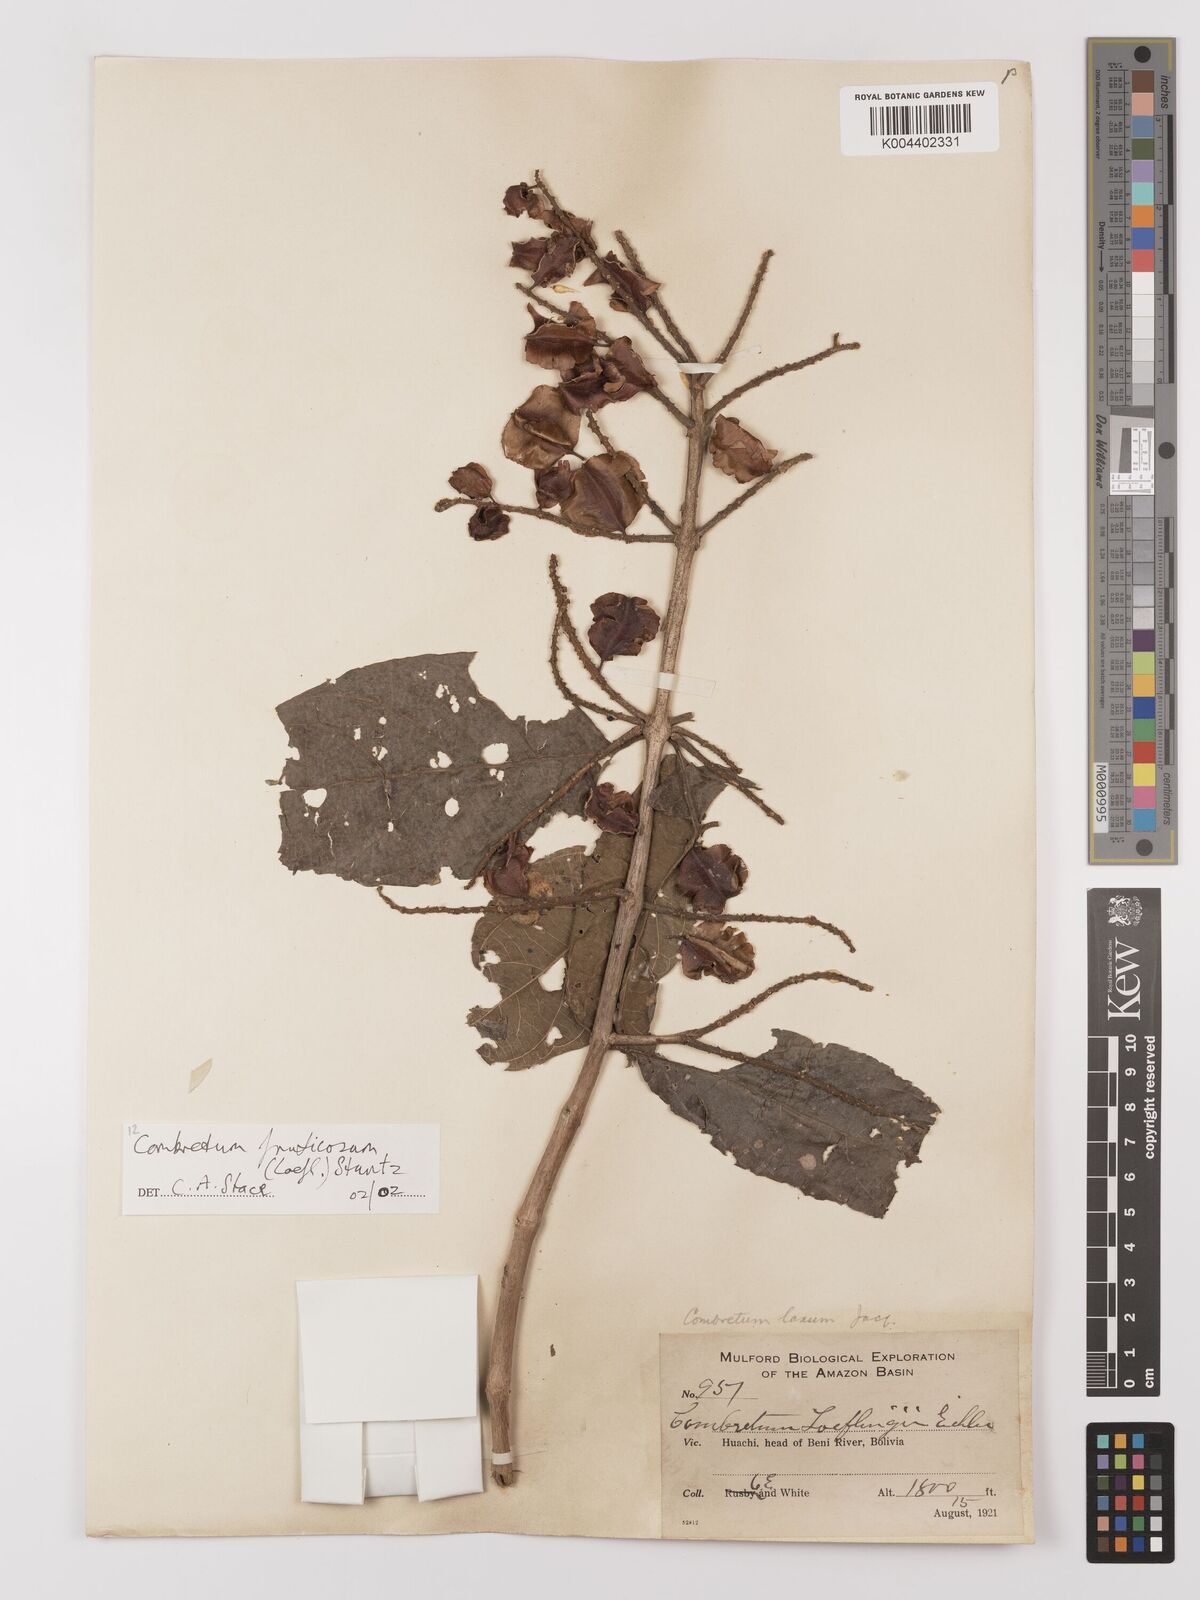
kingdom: Plantae
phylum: Tracheophyta
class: Magnoliopsida
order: Myrtales
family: Combretaceae
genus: Combretum
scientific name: Combretum fruticosum
